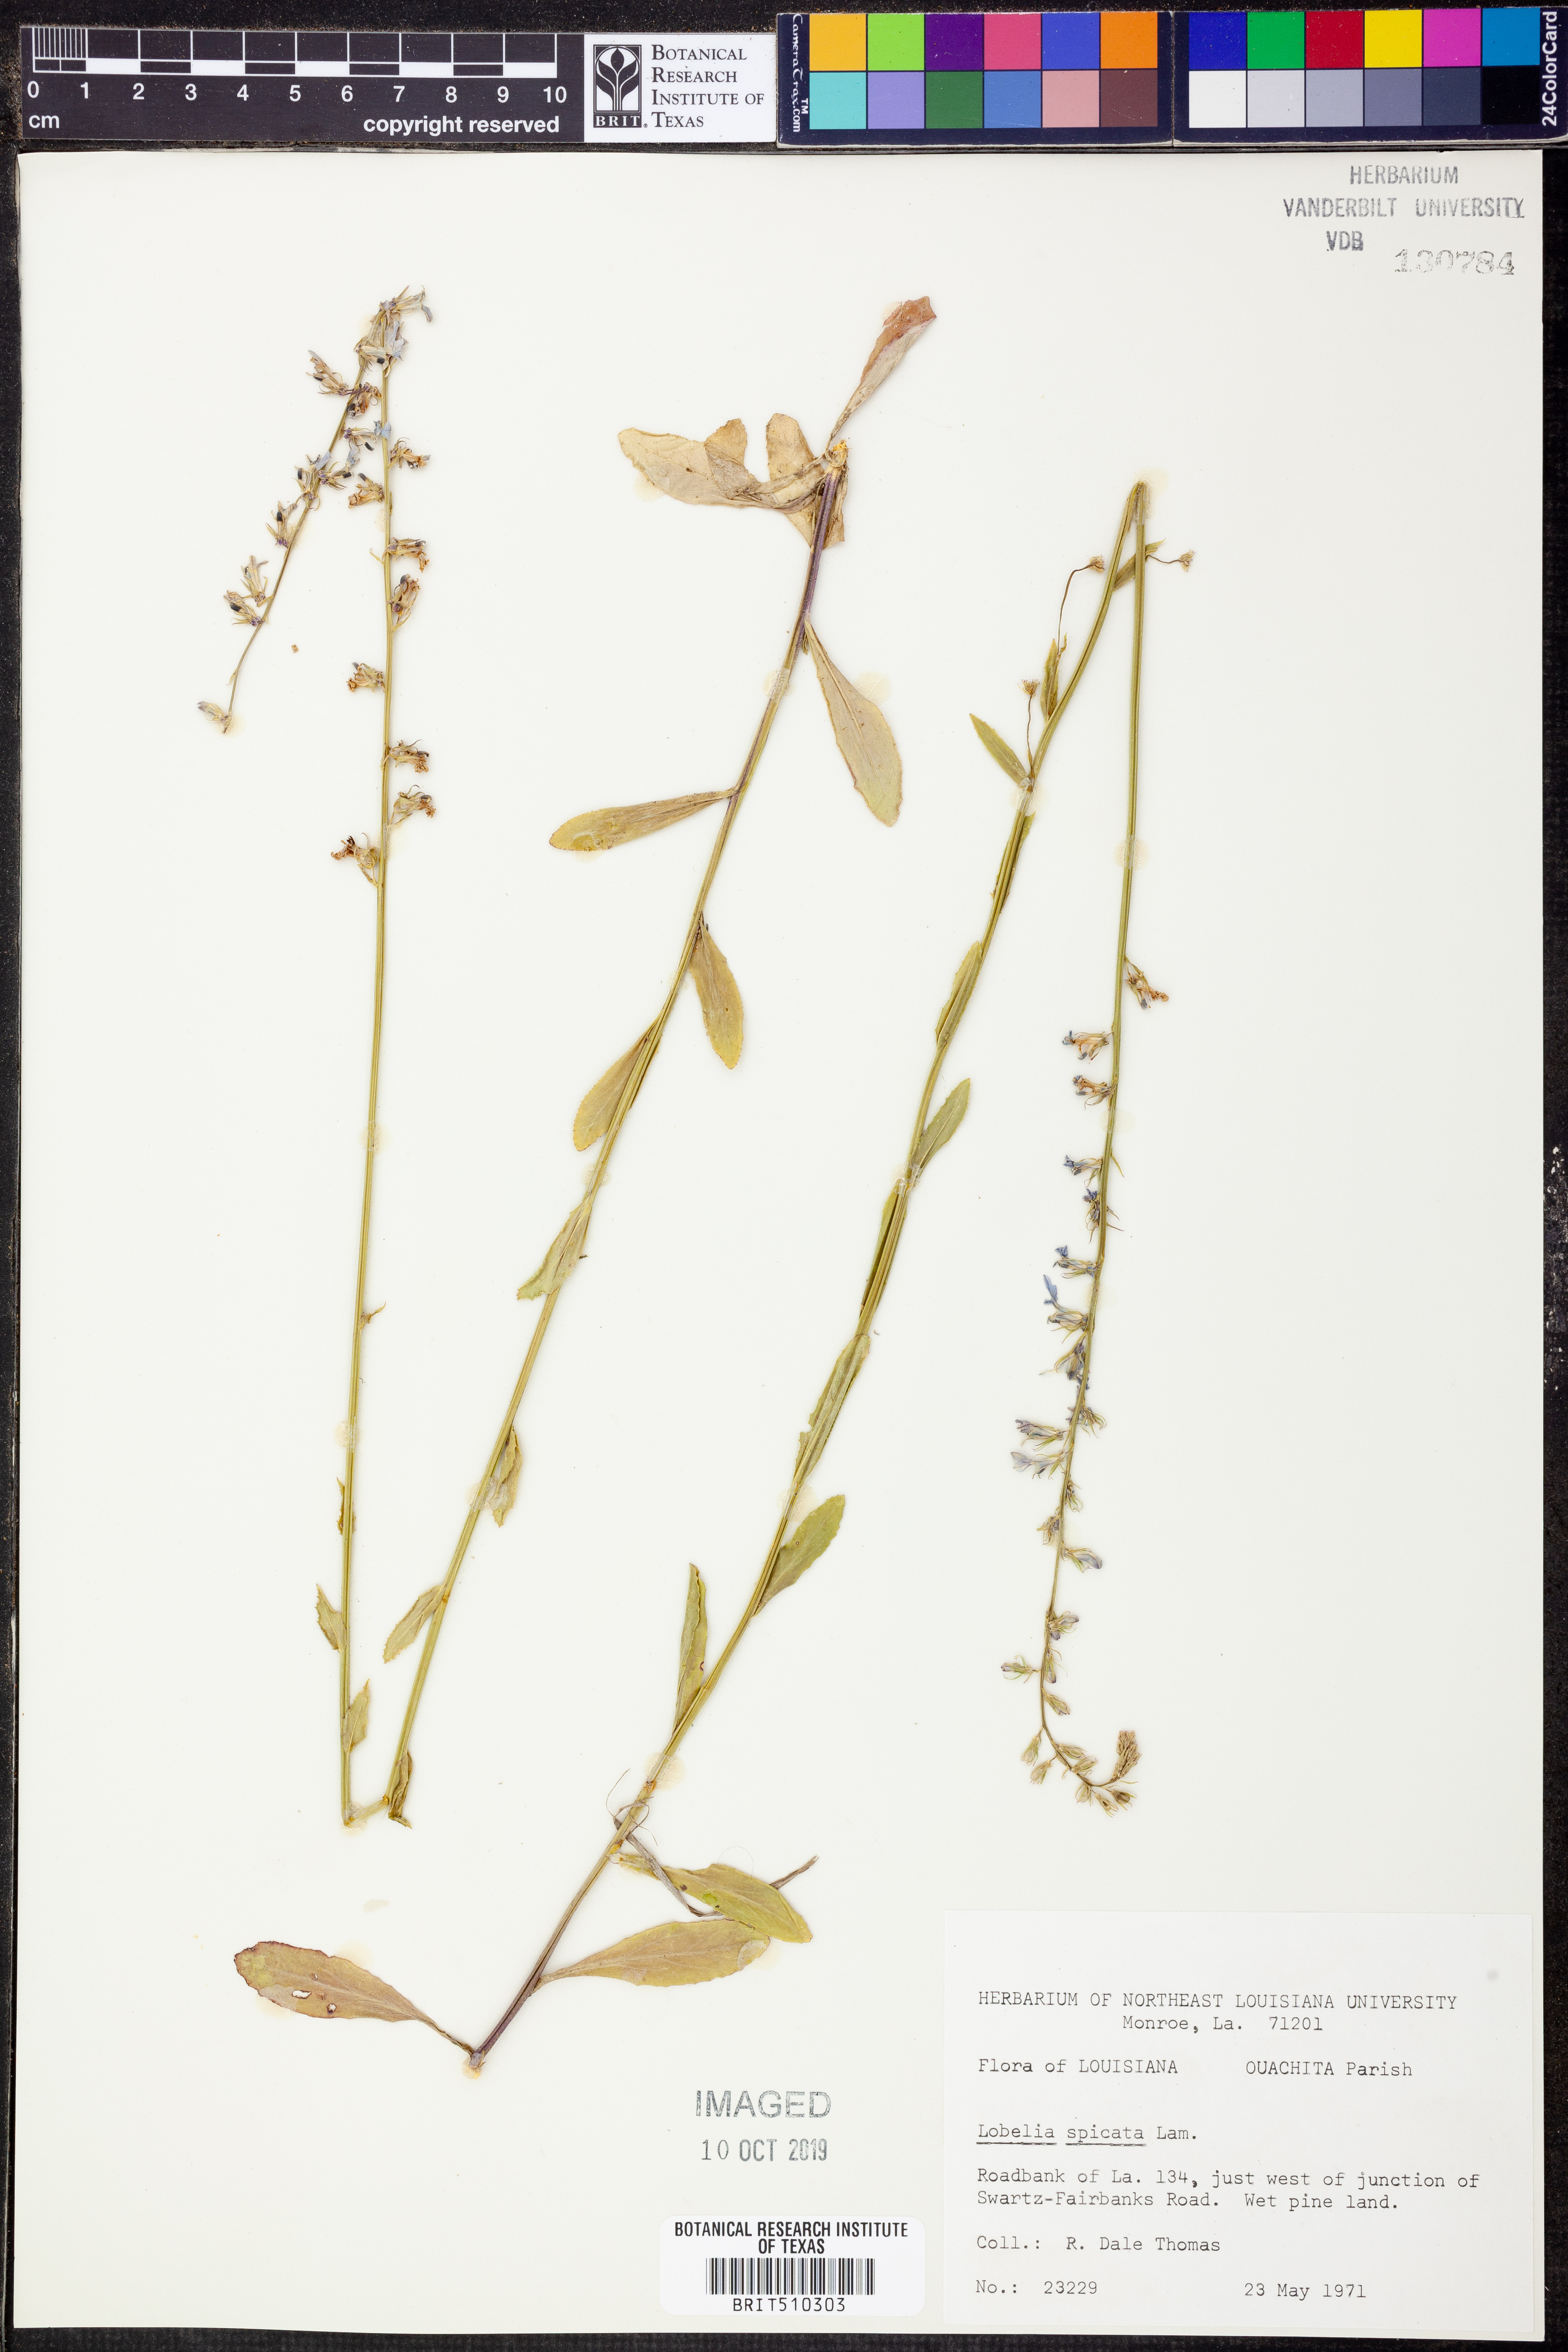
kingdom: Plantae
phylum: Tracheophyta
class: Magnoliopsida
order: Asterales
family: Campanulaceae
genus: Lobelia
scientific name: Lobelia spicata
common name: Pale-spike lobelia
